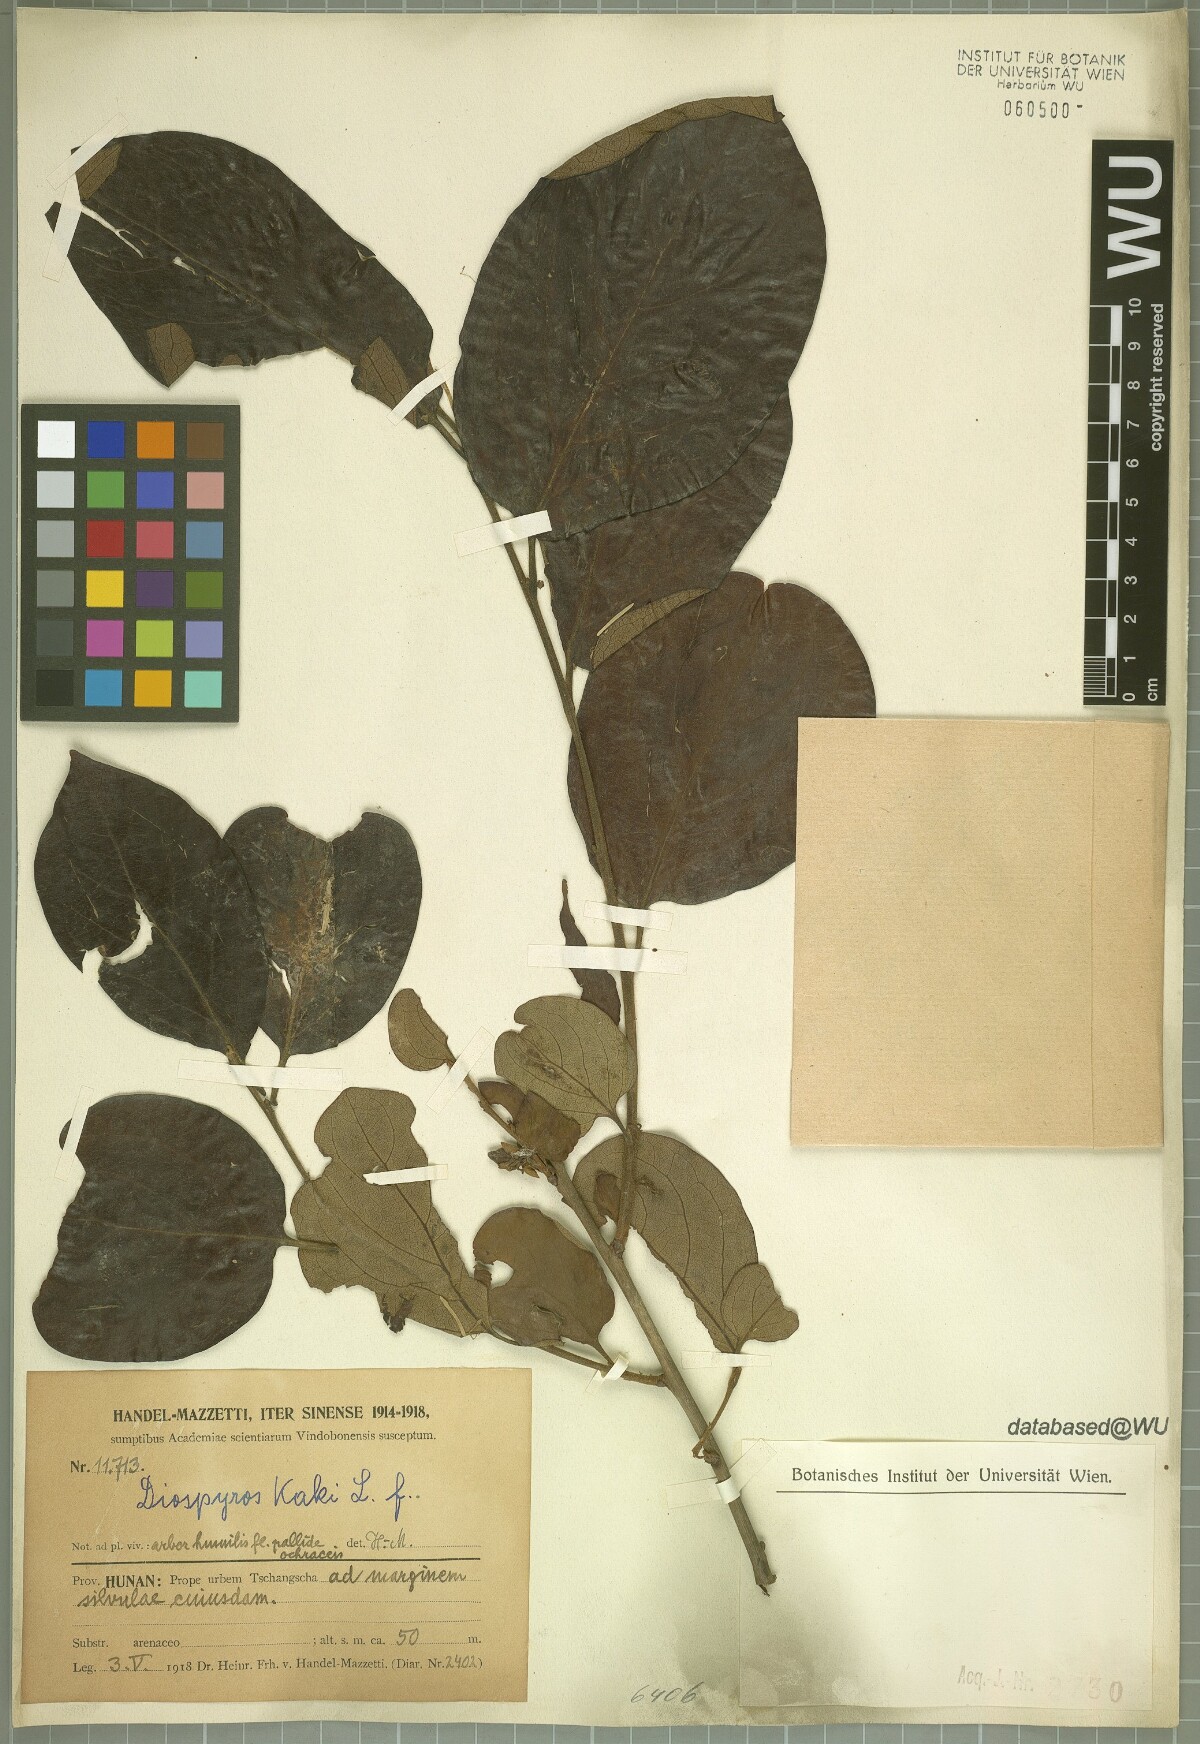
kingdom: Plantae
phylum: Tracheophyta
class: Magnoliopsida
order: Ericales
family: Ebenaceae
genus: Diospyros
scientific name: Diospyros kaki
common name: Persimmon
